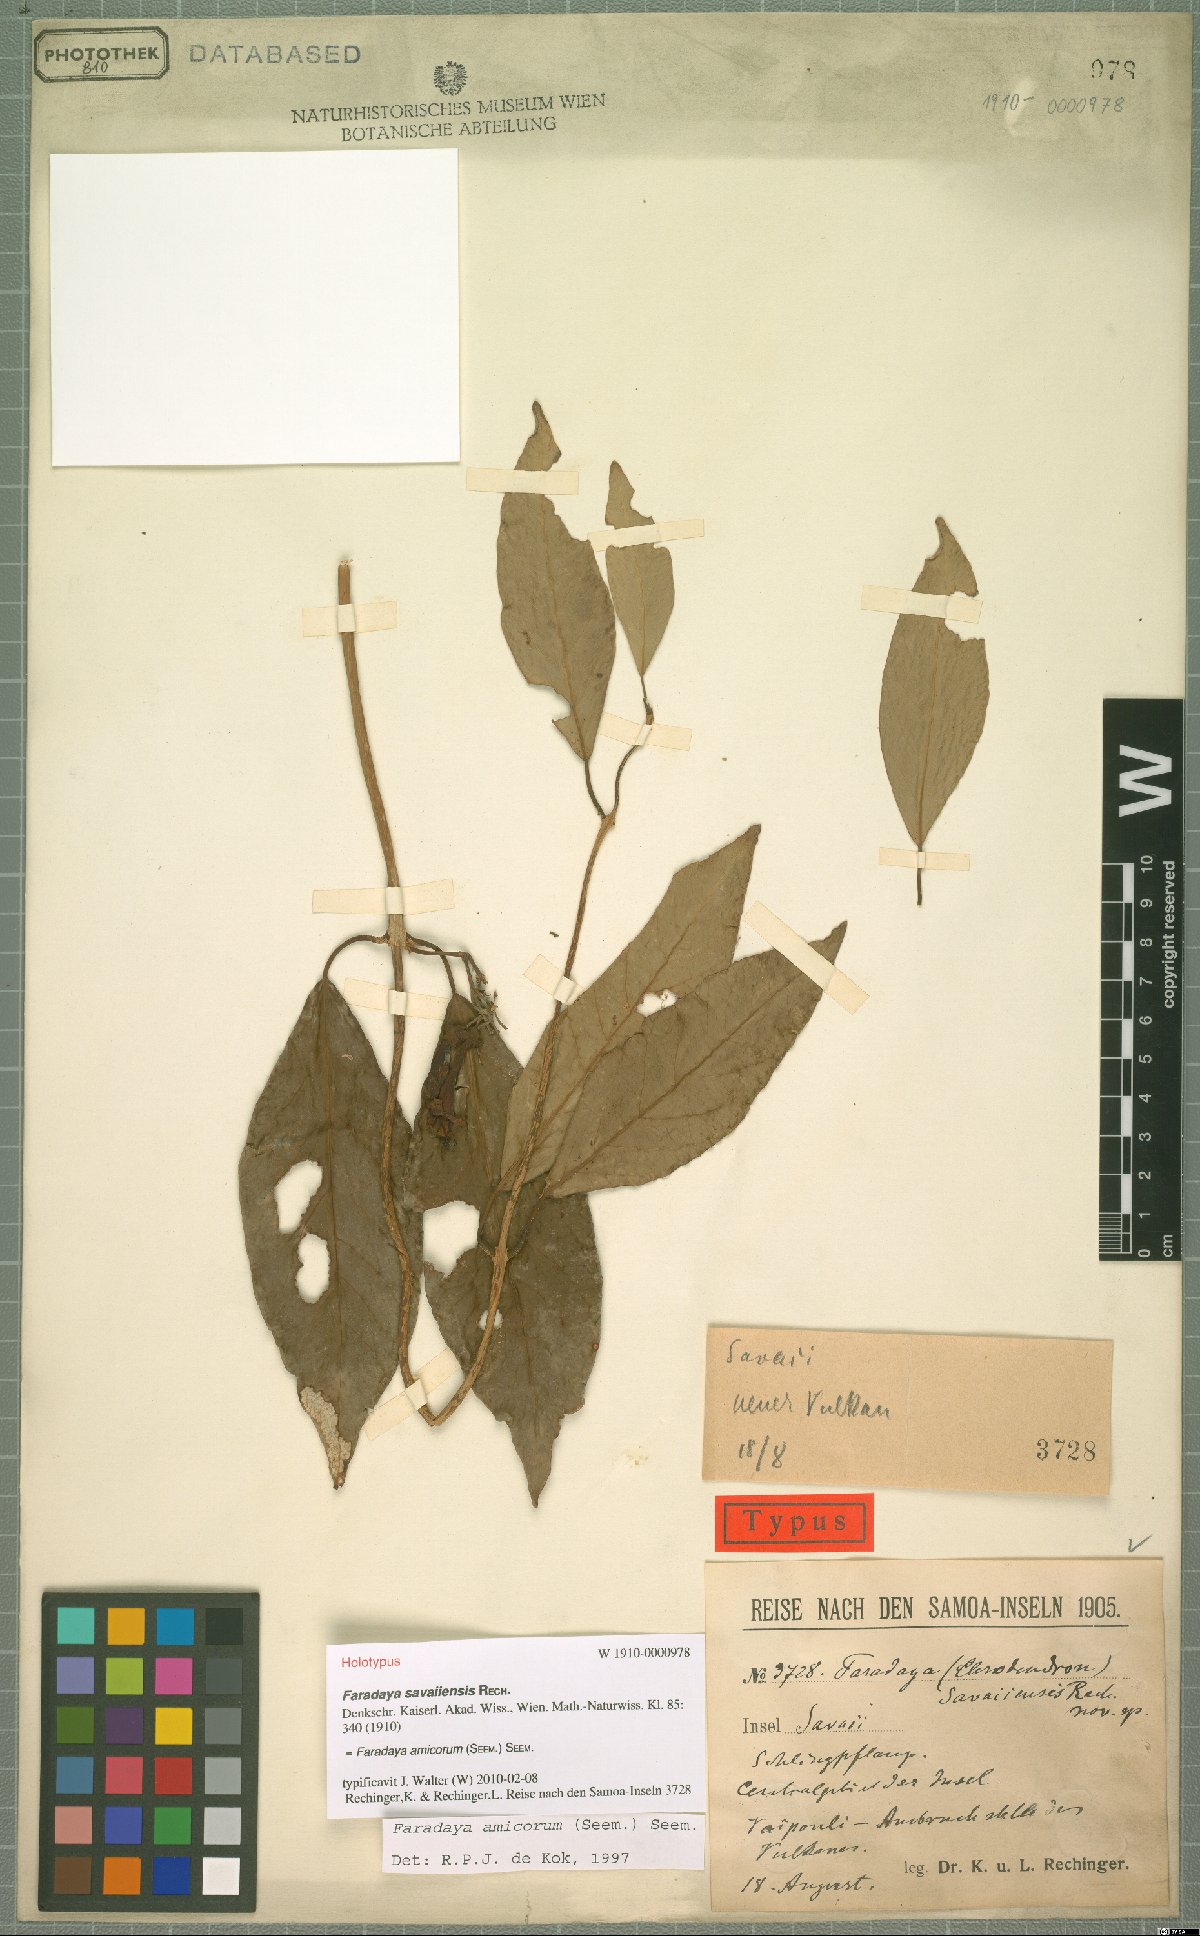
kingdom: Plantae
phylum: Tracheophyta
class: Magnoliopsida
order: Lamiales
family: Lamiaceae
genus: Oxera
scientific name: Oxera amicorum
